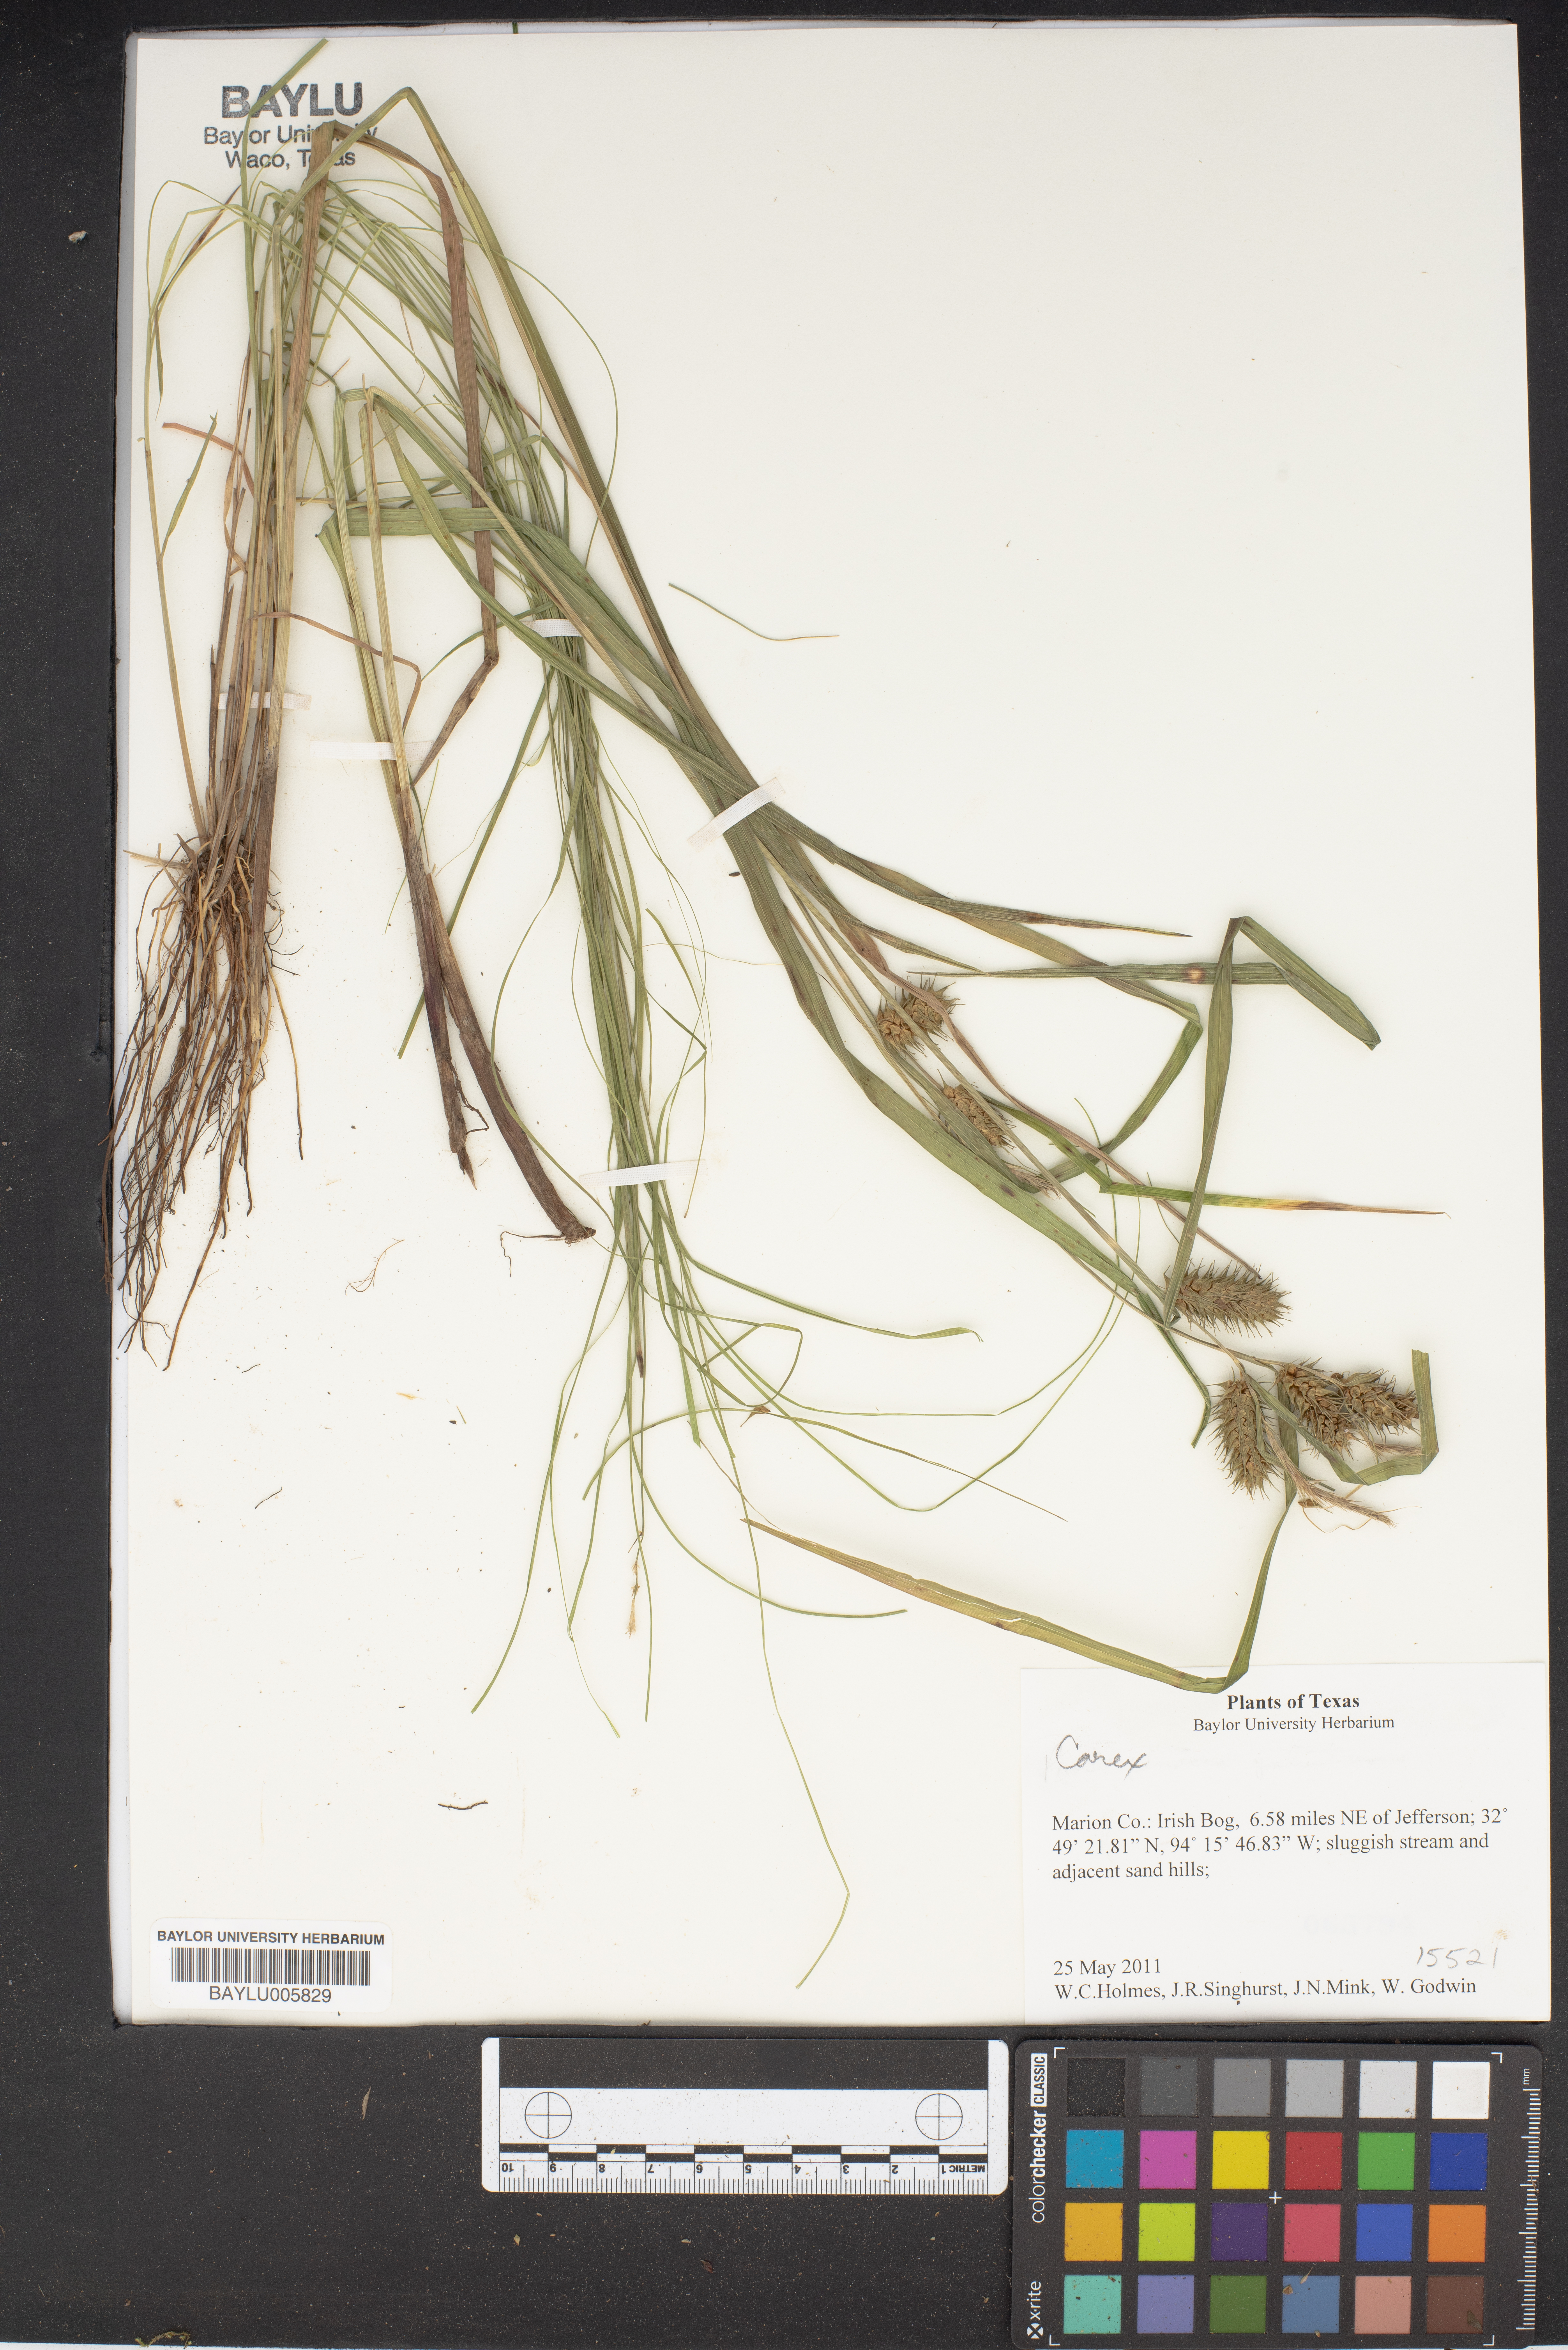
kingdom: Plantae
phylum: Tracheophyta
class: Liliopsida
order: Poales
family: Cyperaceae
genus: Carex
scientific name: Carex
